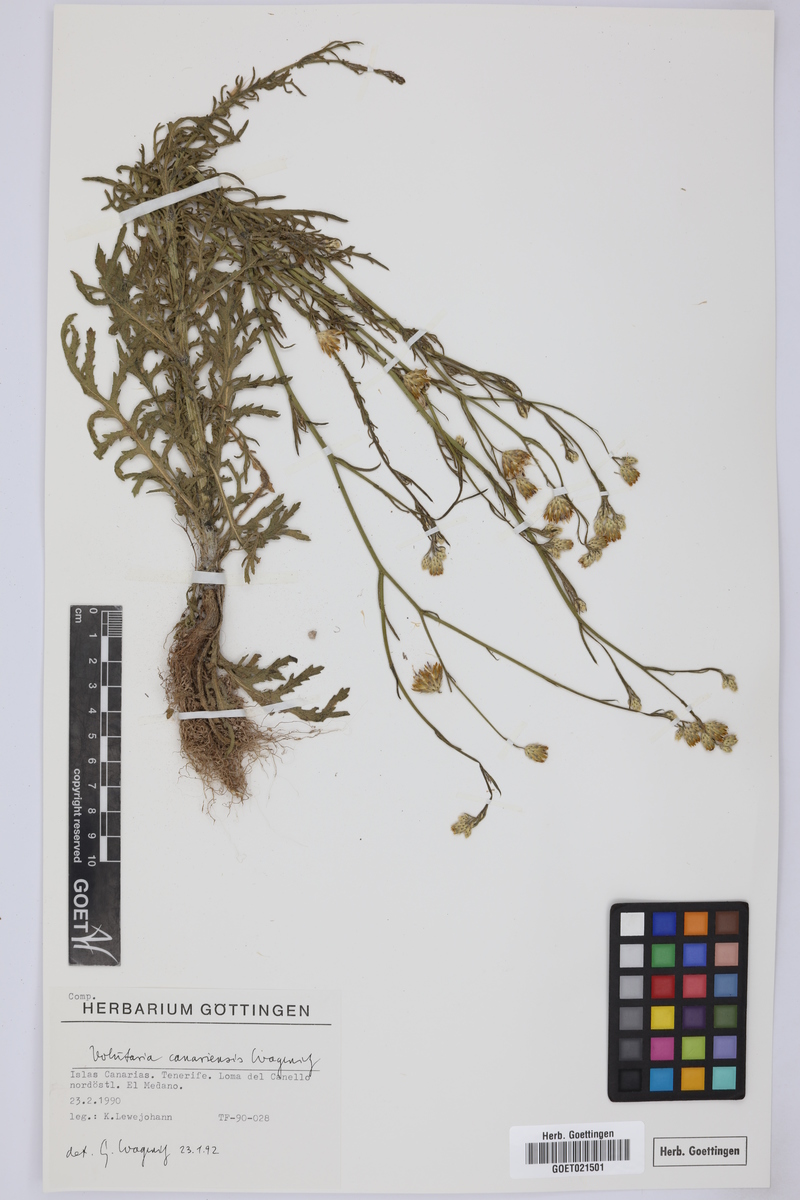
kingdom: Plantae
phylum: Tracheophyta
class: Magnoliopsida
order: Asterales
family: Asteraceae
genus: Volutaria
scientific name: Volutaria canariensis
